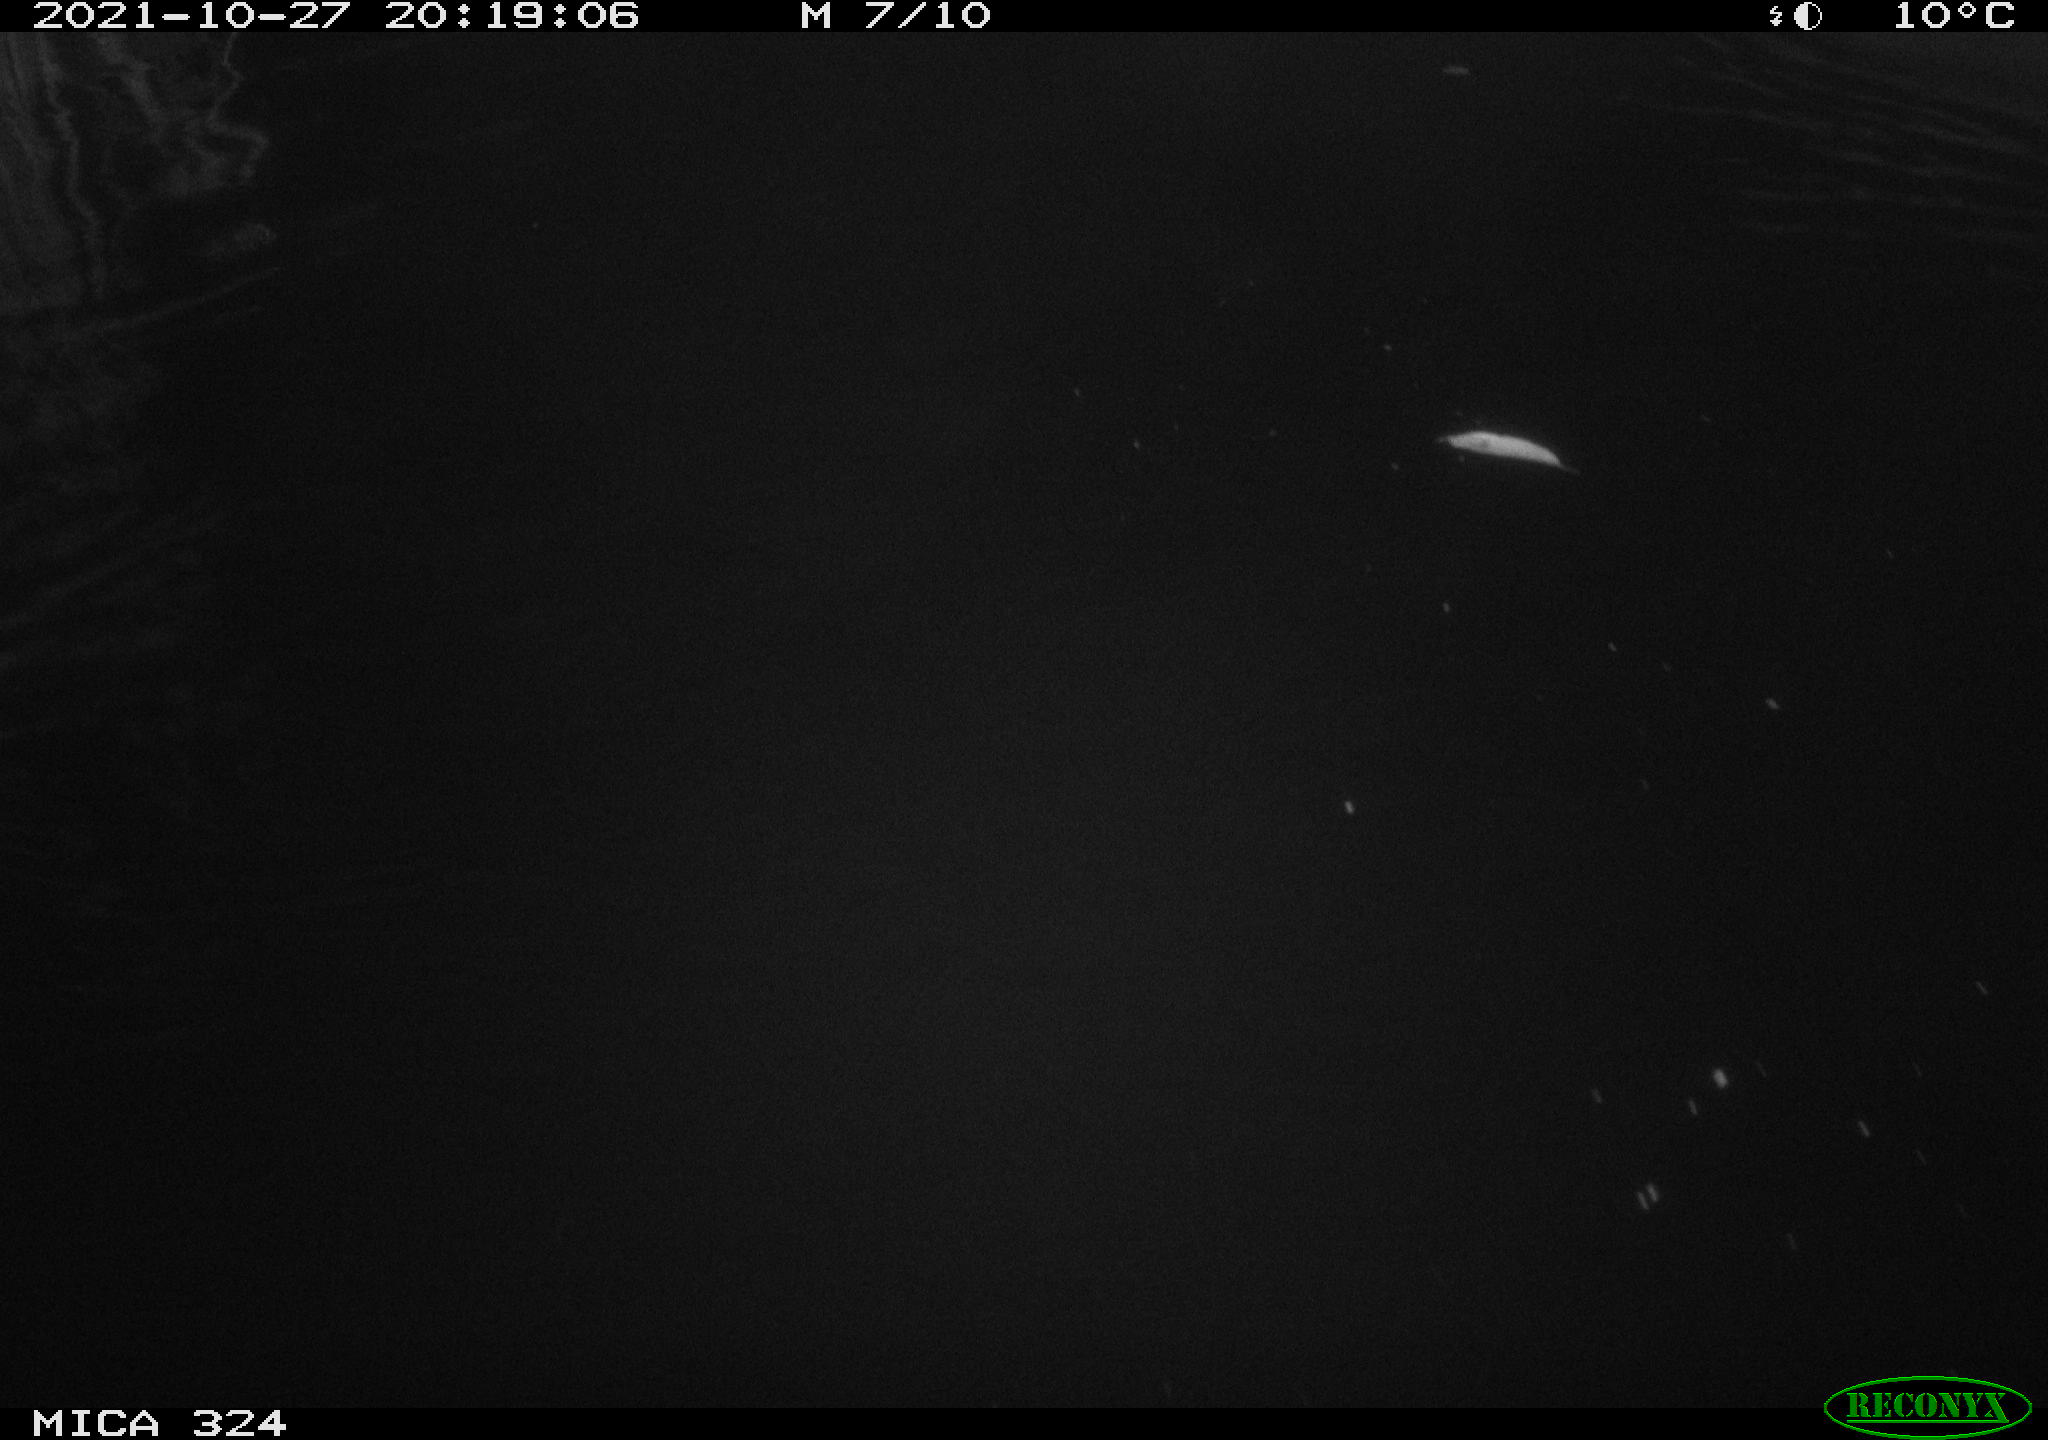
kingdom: Animalia
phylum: Chordata
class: Mammalia
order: Rodentia
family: Cricetidae
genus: Ondatra
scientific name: Ondatra zibethicus
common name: Muskrat
